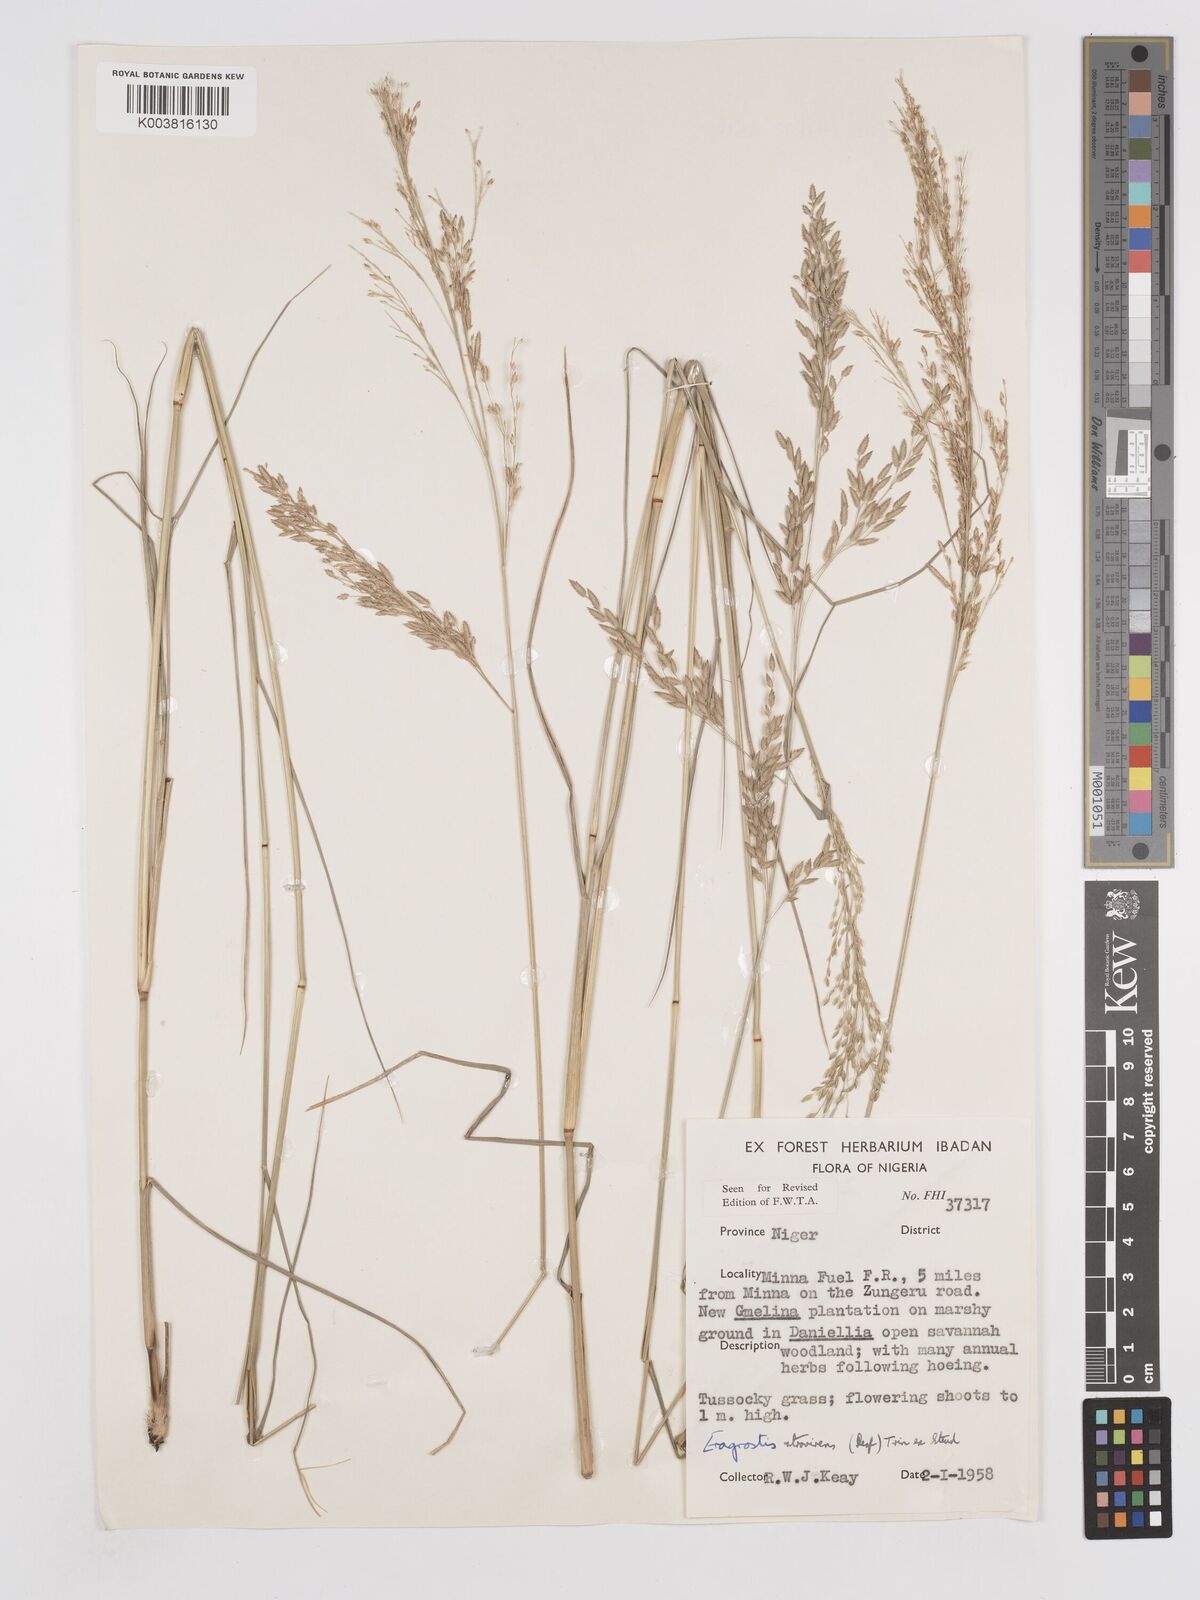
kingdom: Plantae
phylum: Tracheophyta
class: Liliopsida
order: Poales
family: Poaceae
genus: Eragrostis
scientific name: Eragrostis atrovirens
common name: Thalia lovegrass
